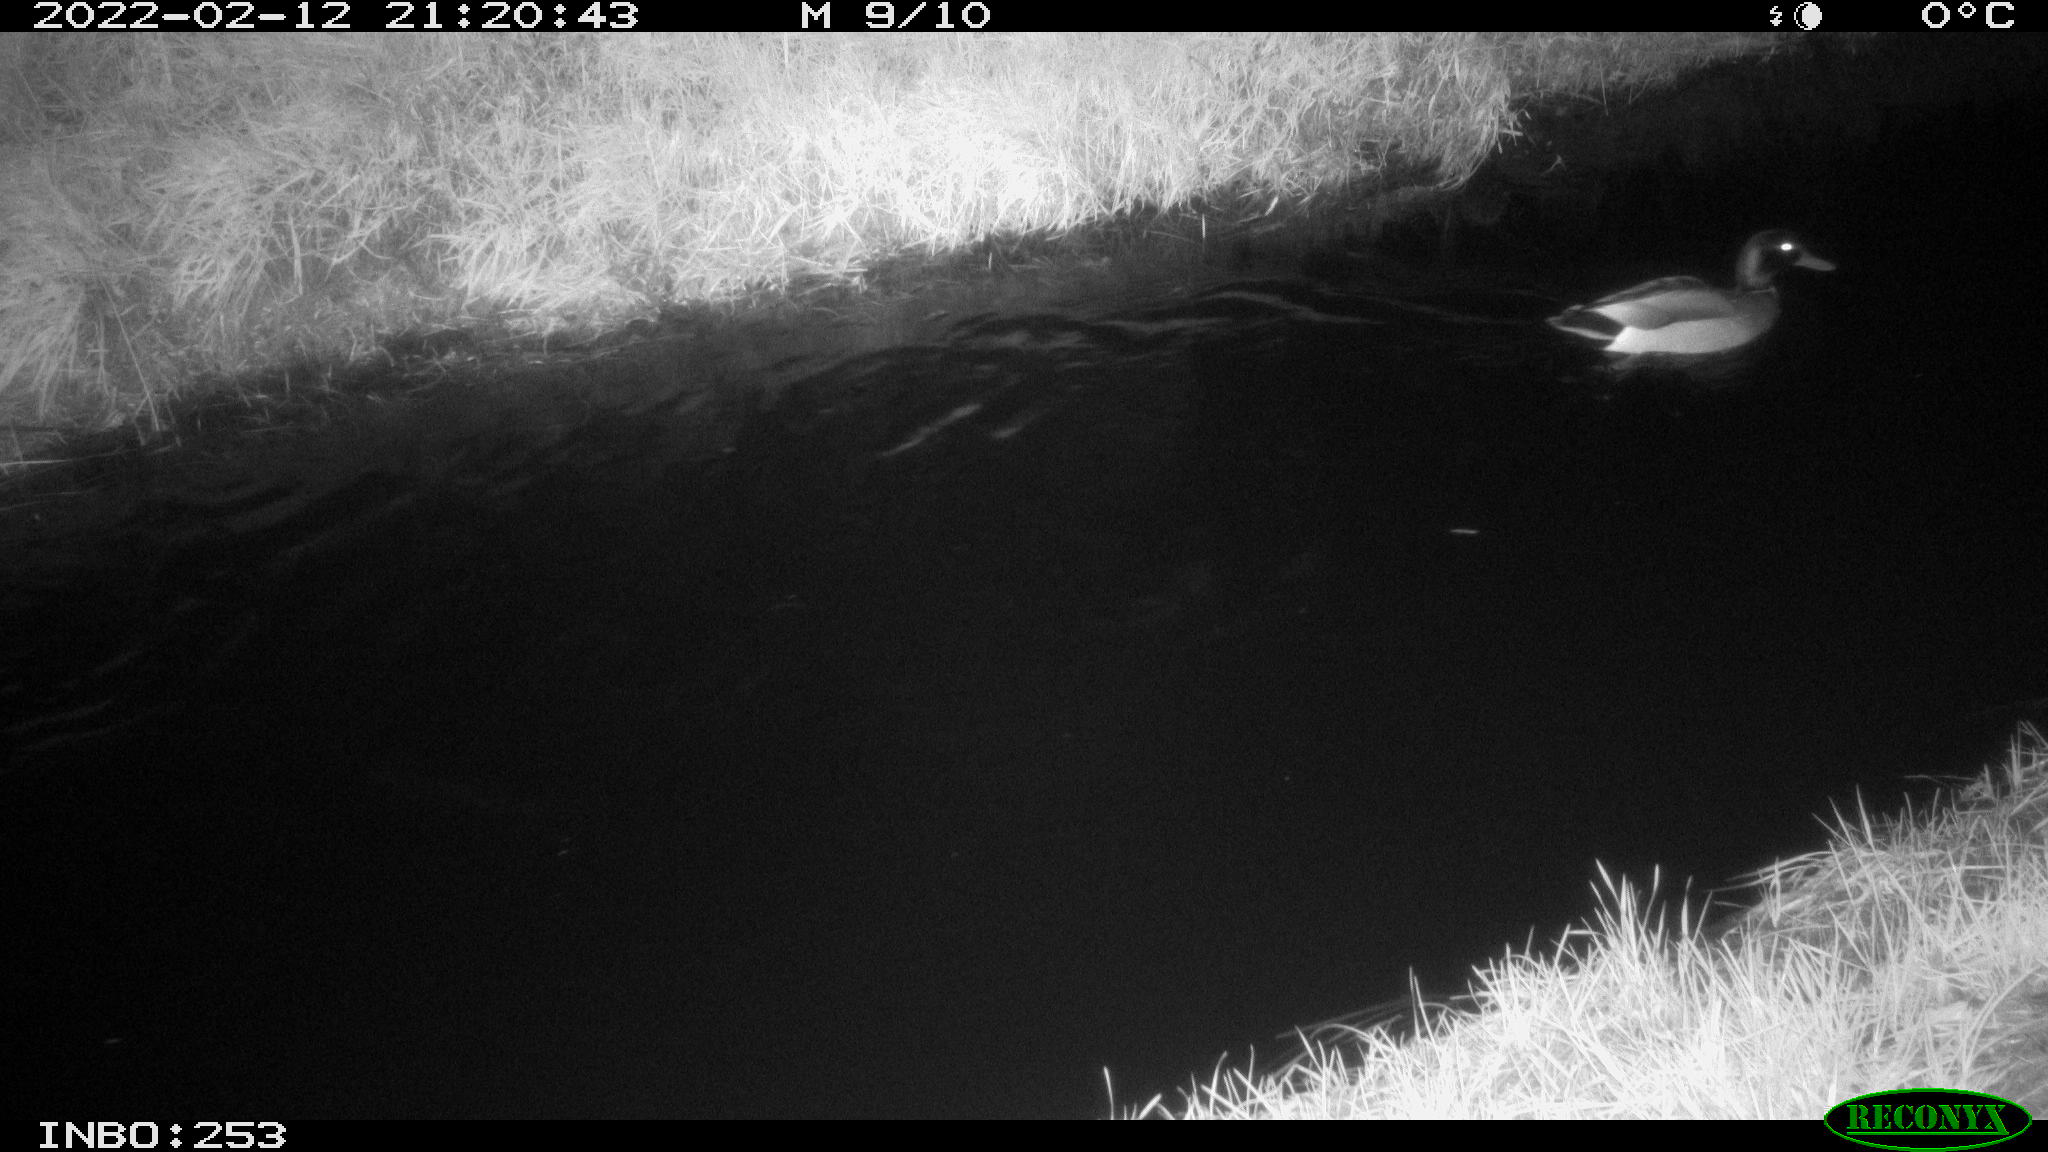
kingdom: Animalia
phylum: Chordata
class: Aves
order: Anseriformes
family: Anatidae
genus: Anas
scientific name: Anas platyrhynchos
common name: Mallard
